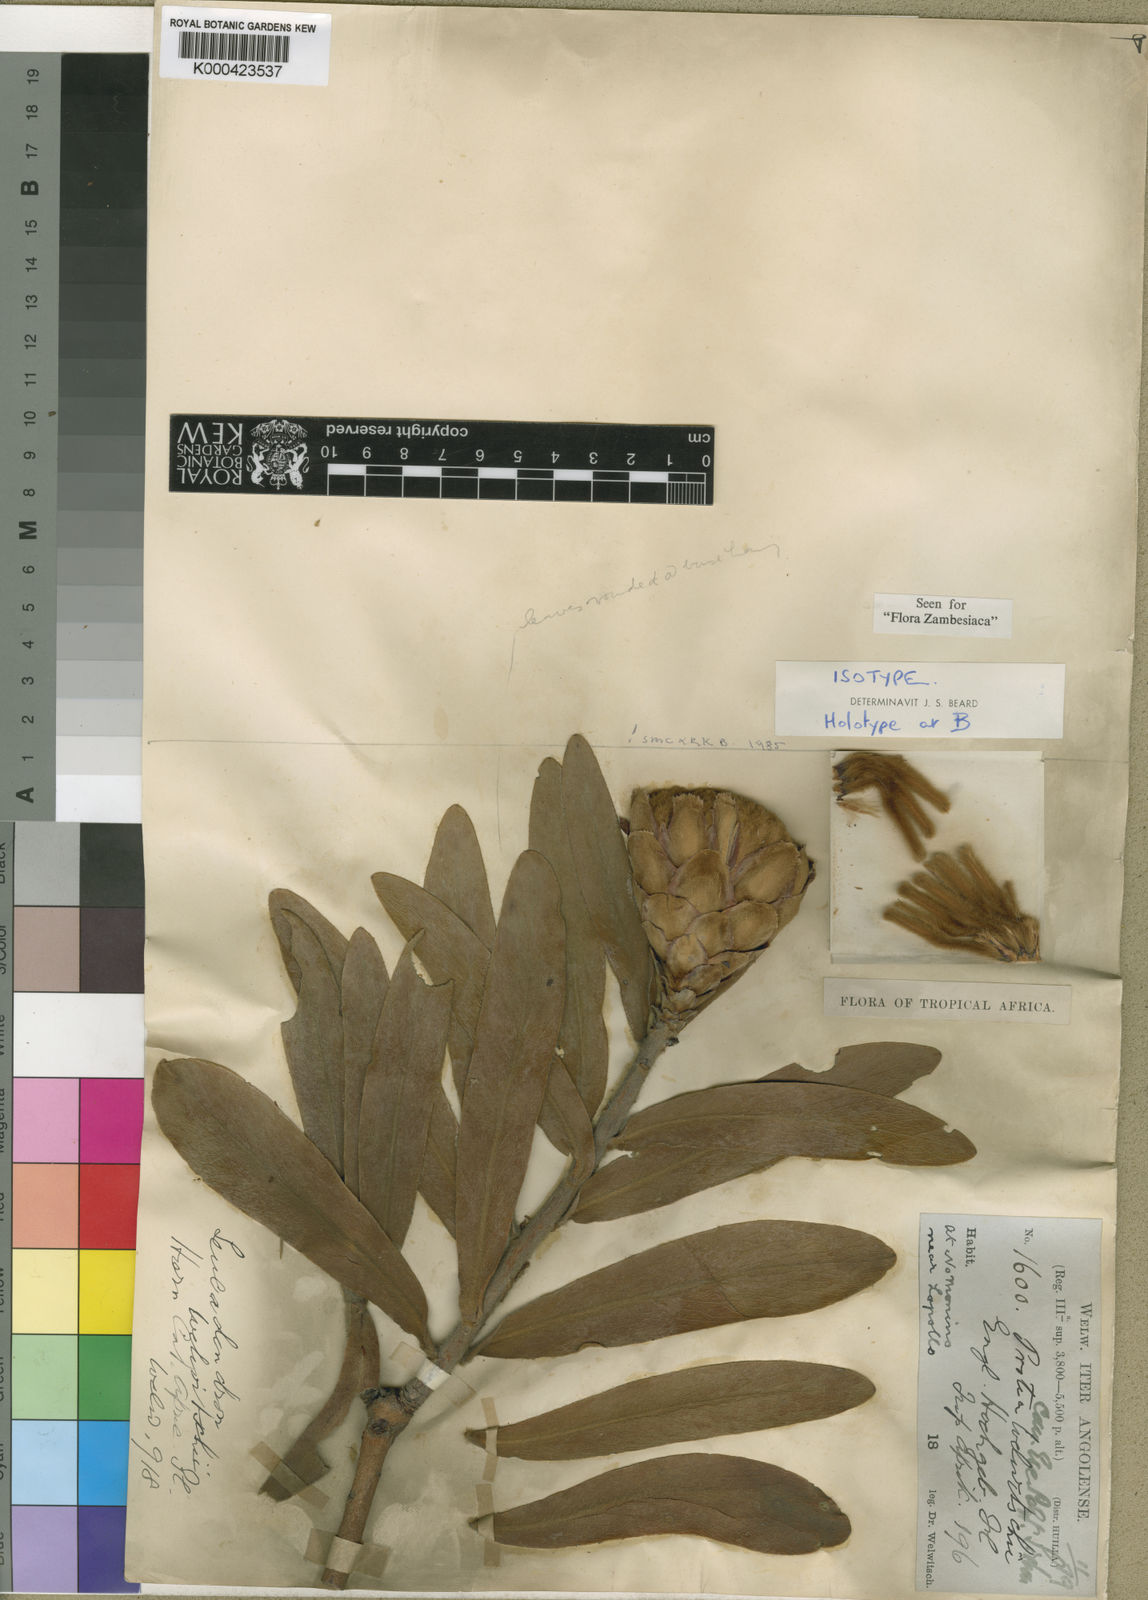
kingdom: Plantae
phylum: Tracheophyta
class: Magnoliopsida
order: Proteales
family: Proteaceae
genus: Protea
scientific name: Protea welwitschii
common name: Cluster-head protea
